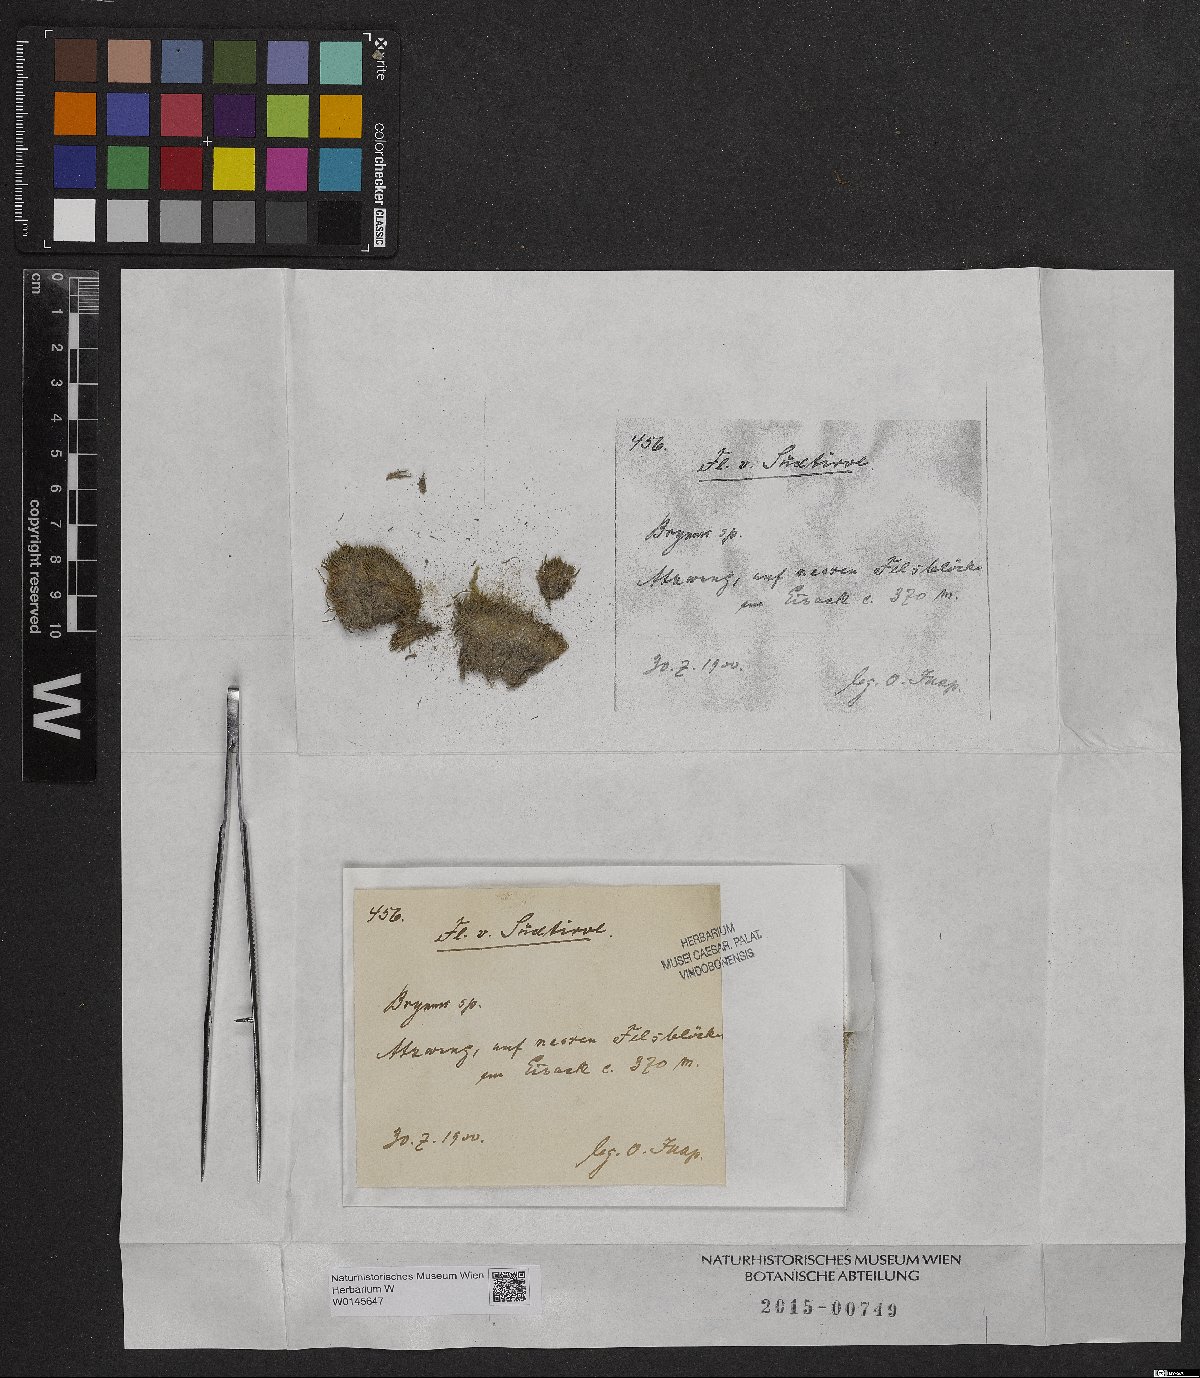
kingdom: Plantae
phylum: Bryophyta
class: Bryopsida
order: Bryales
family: Bryaceae
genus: Bryum
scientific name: Bryum
